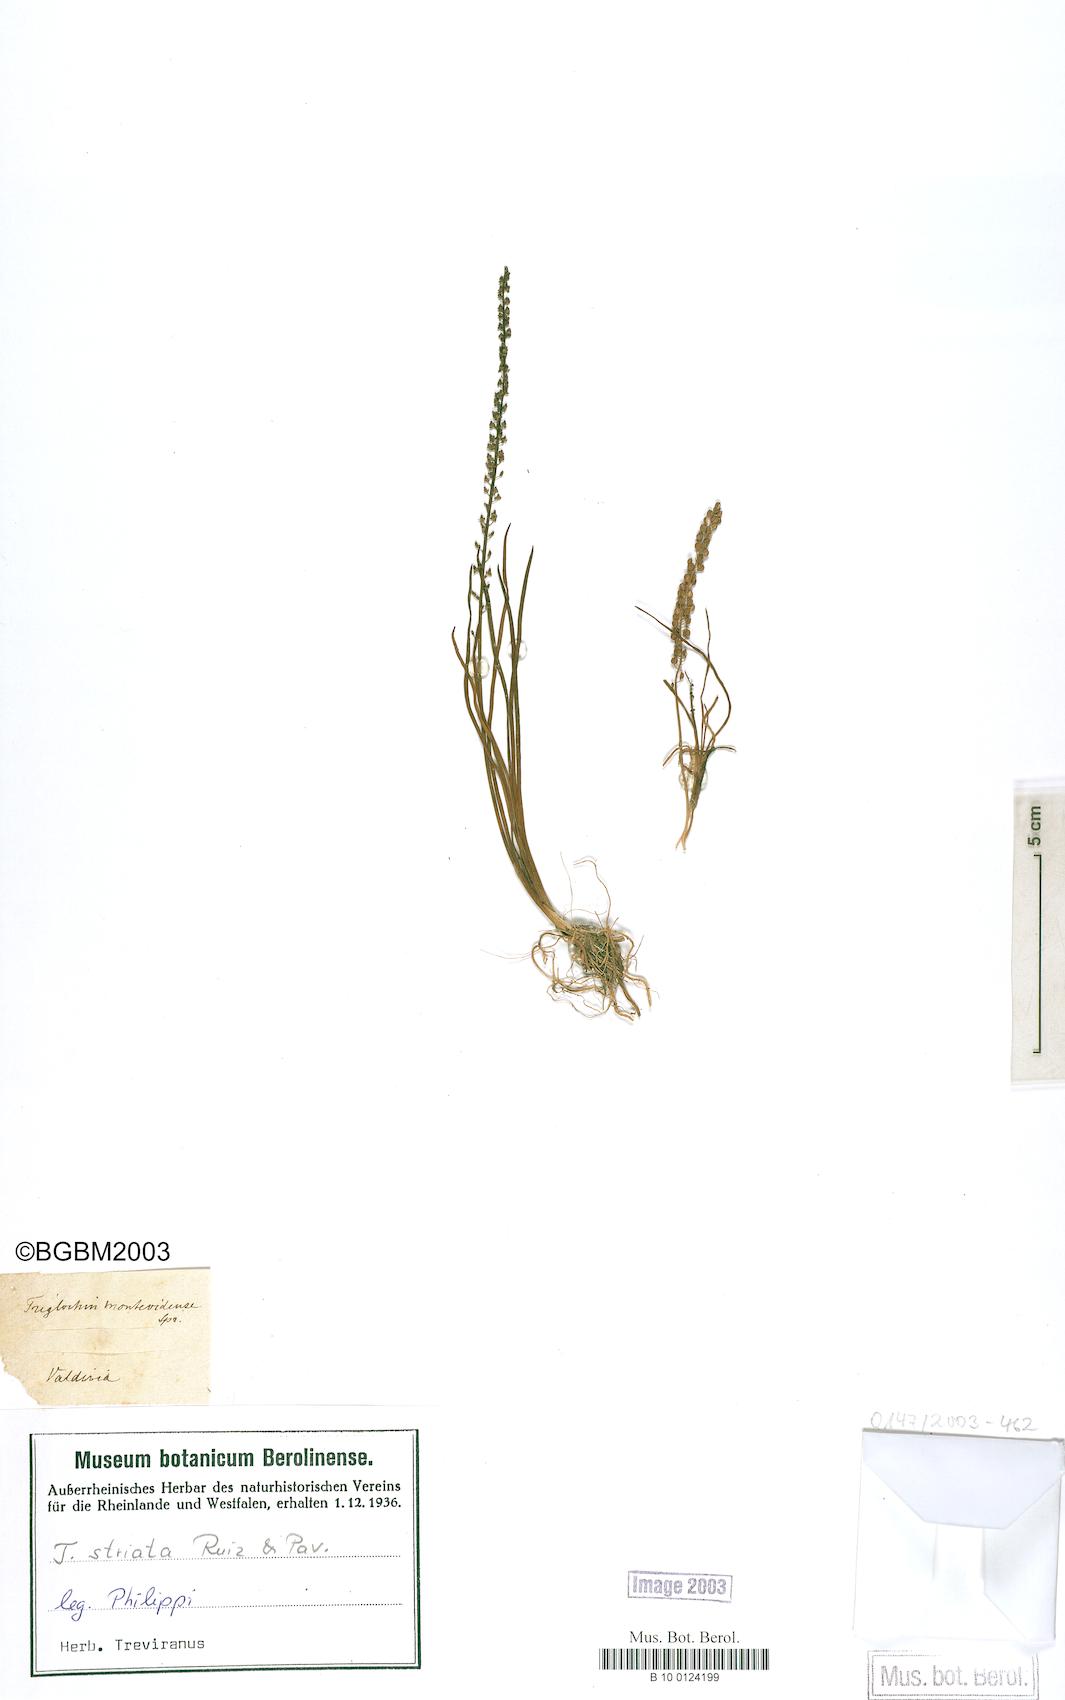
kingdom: Plantae
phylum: Tracheophyta
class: Liliopsida
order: Alismatales
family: Juncaginaceae
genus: Triglochin
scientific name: Triglochin striata
